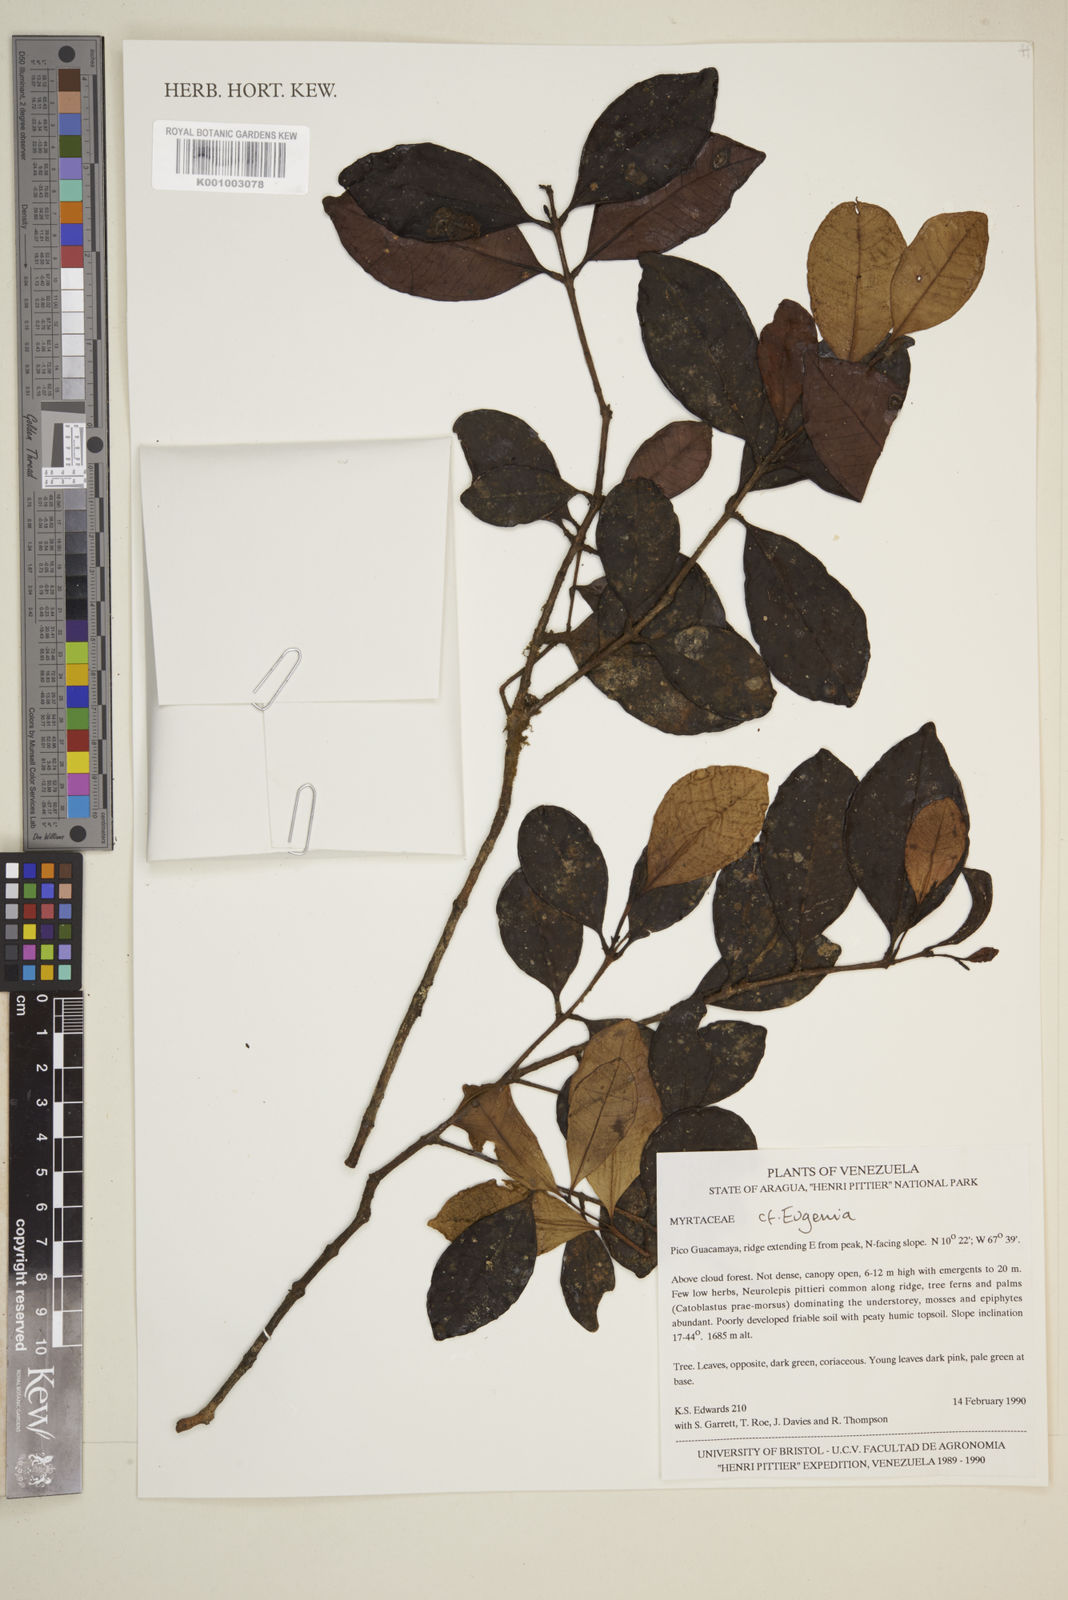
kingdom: Plantae
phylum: Tracheophyta
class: Magnoliopsida
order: Myrtales
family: Myrtaceae
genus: Eugenia
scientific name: Eugenia
